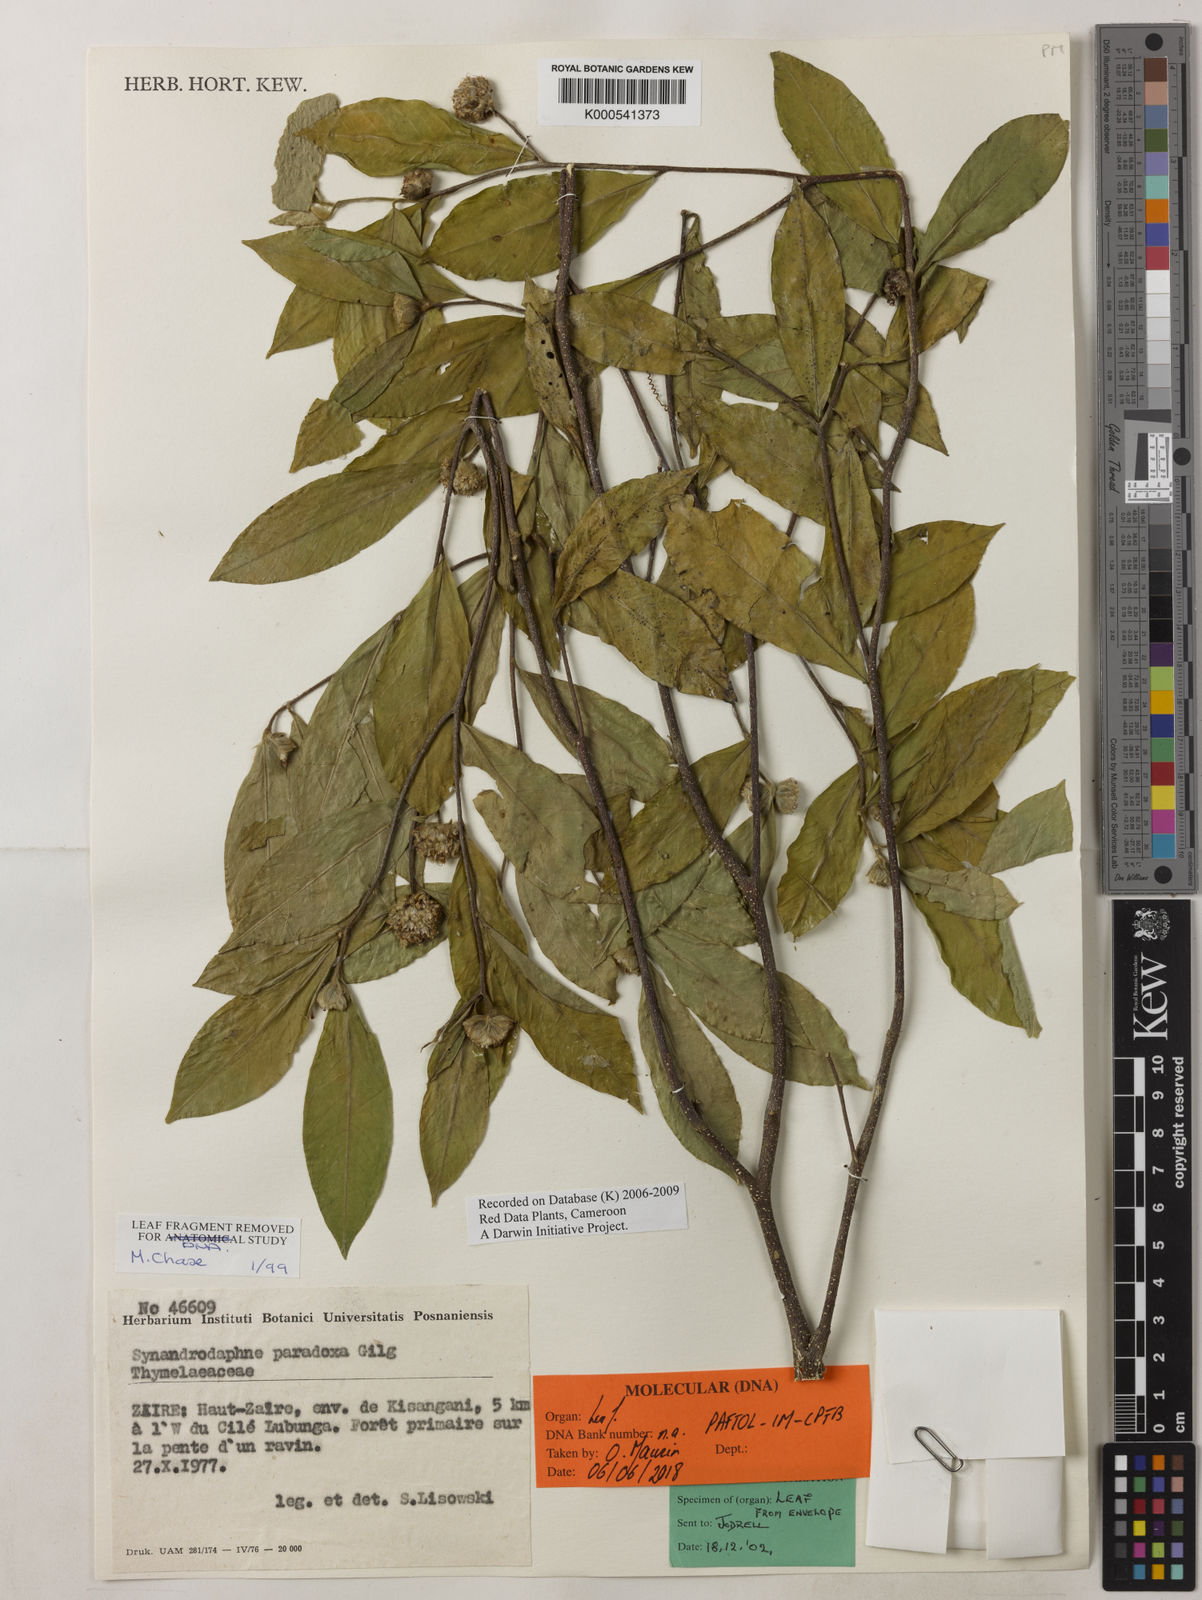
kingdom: Plantae
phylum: Tracheophyta
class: Magnoliopsida
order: Malvales
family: Thymelaeaceae
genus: Synandrodaphne
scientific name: Synandrodaphne paradoxa
